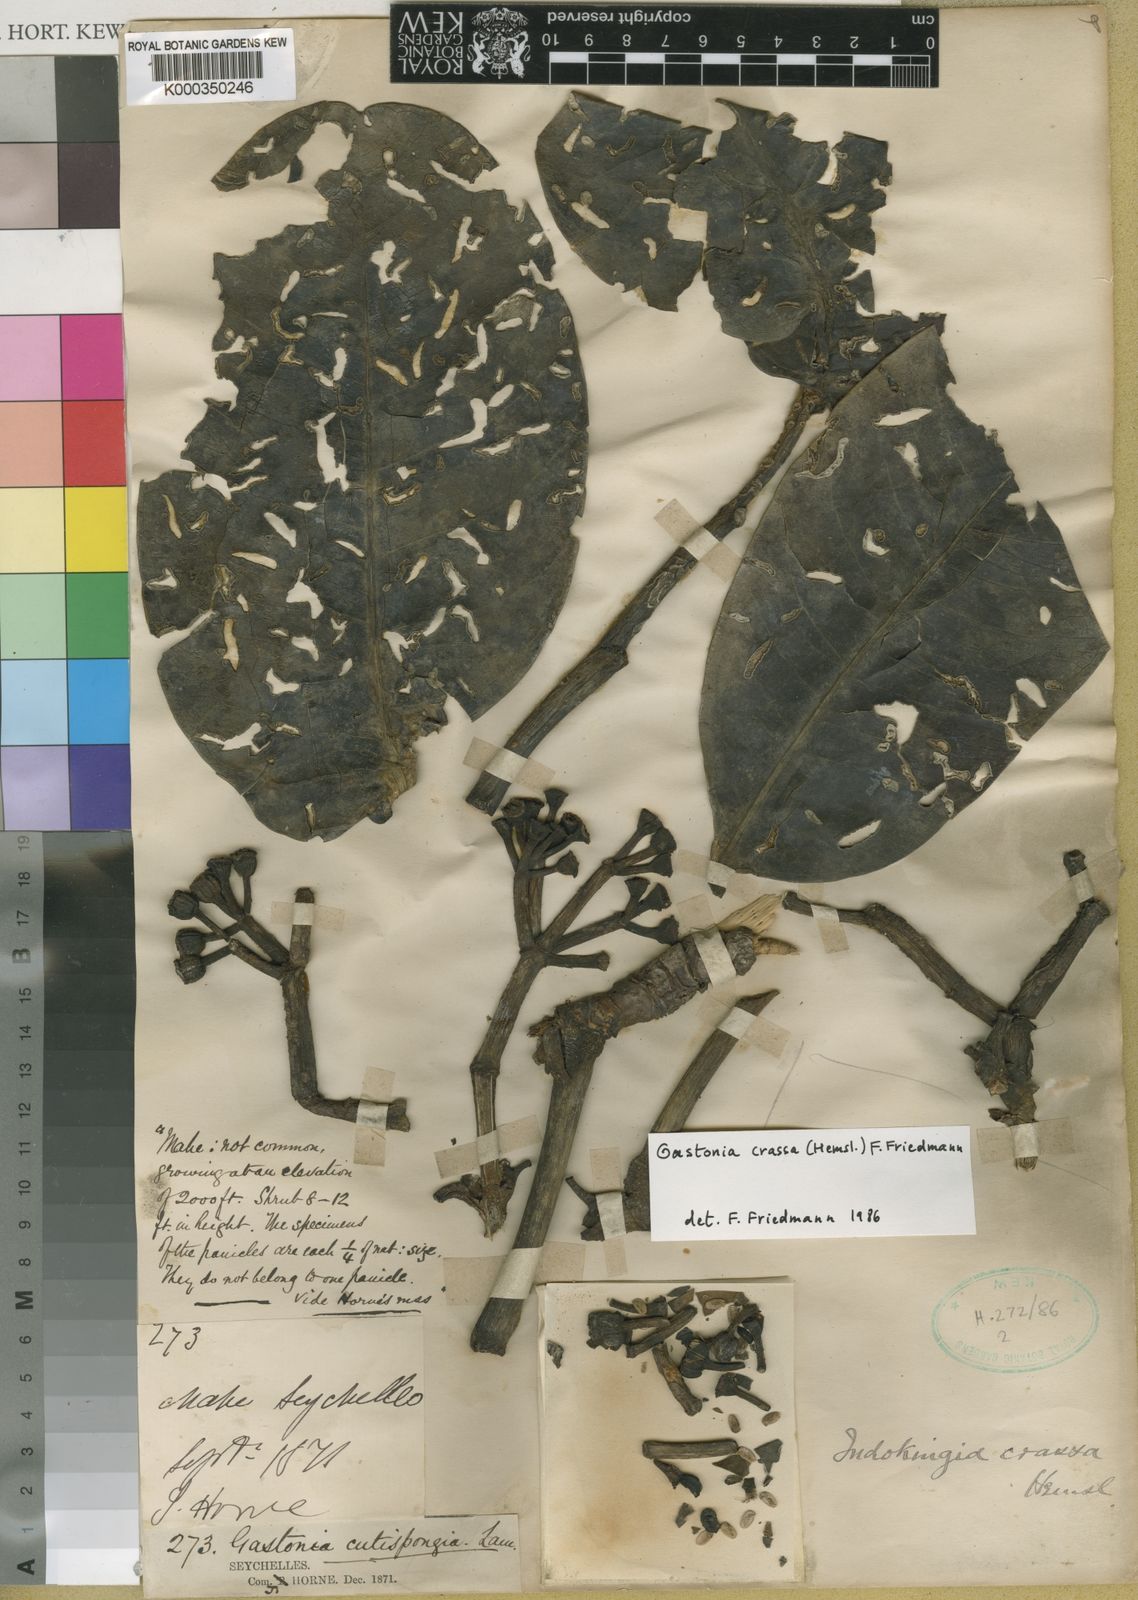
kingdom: Plantae
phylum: Tracheophyta
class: Magnoliopsida
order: Apiales
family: Araliaceae
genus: Polyscias
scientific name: Polyscias crassa
